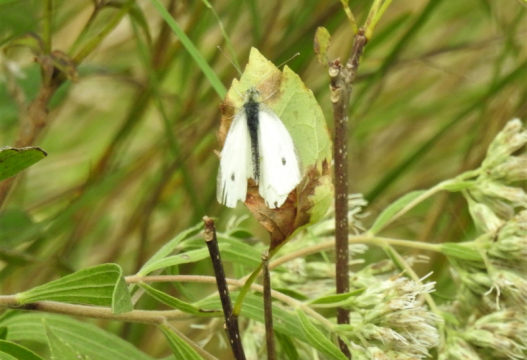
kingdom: Animalia
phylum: Arthropoda
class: Insecta
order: Lepidoptera
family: Pieridae
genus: Pieris
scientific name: Pieris rapae
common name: Cabbage White
